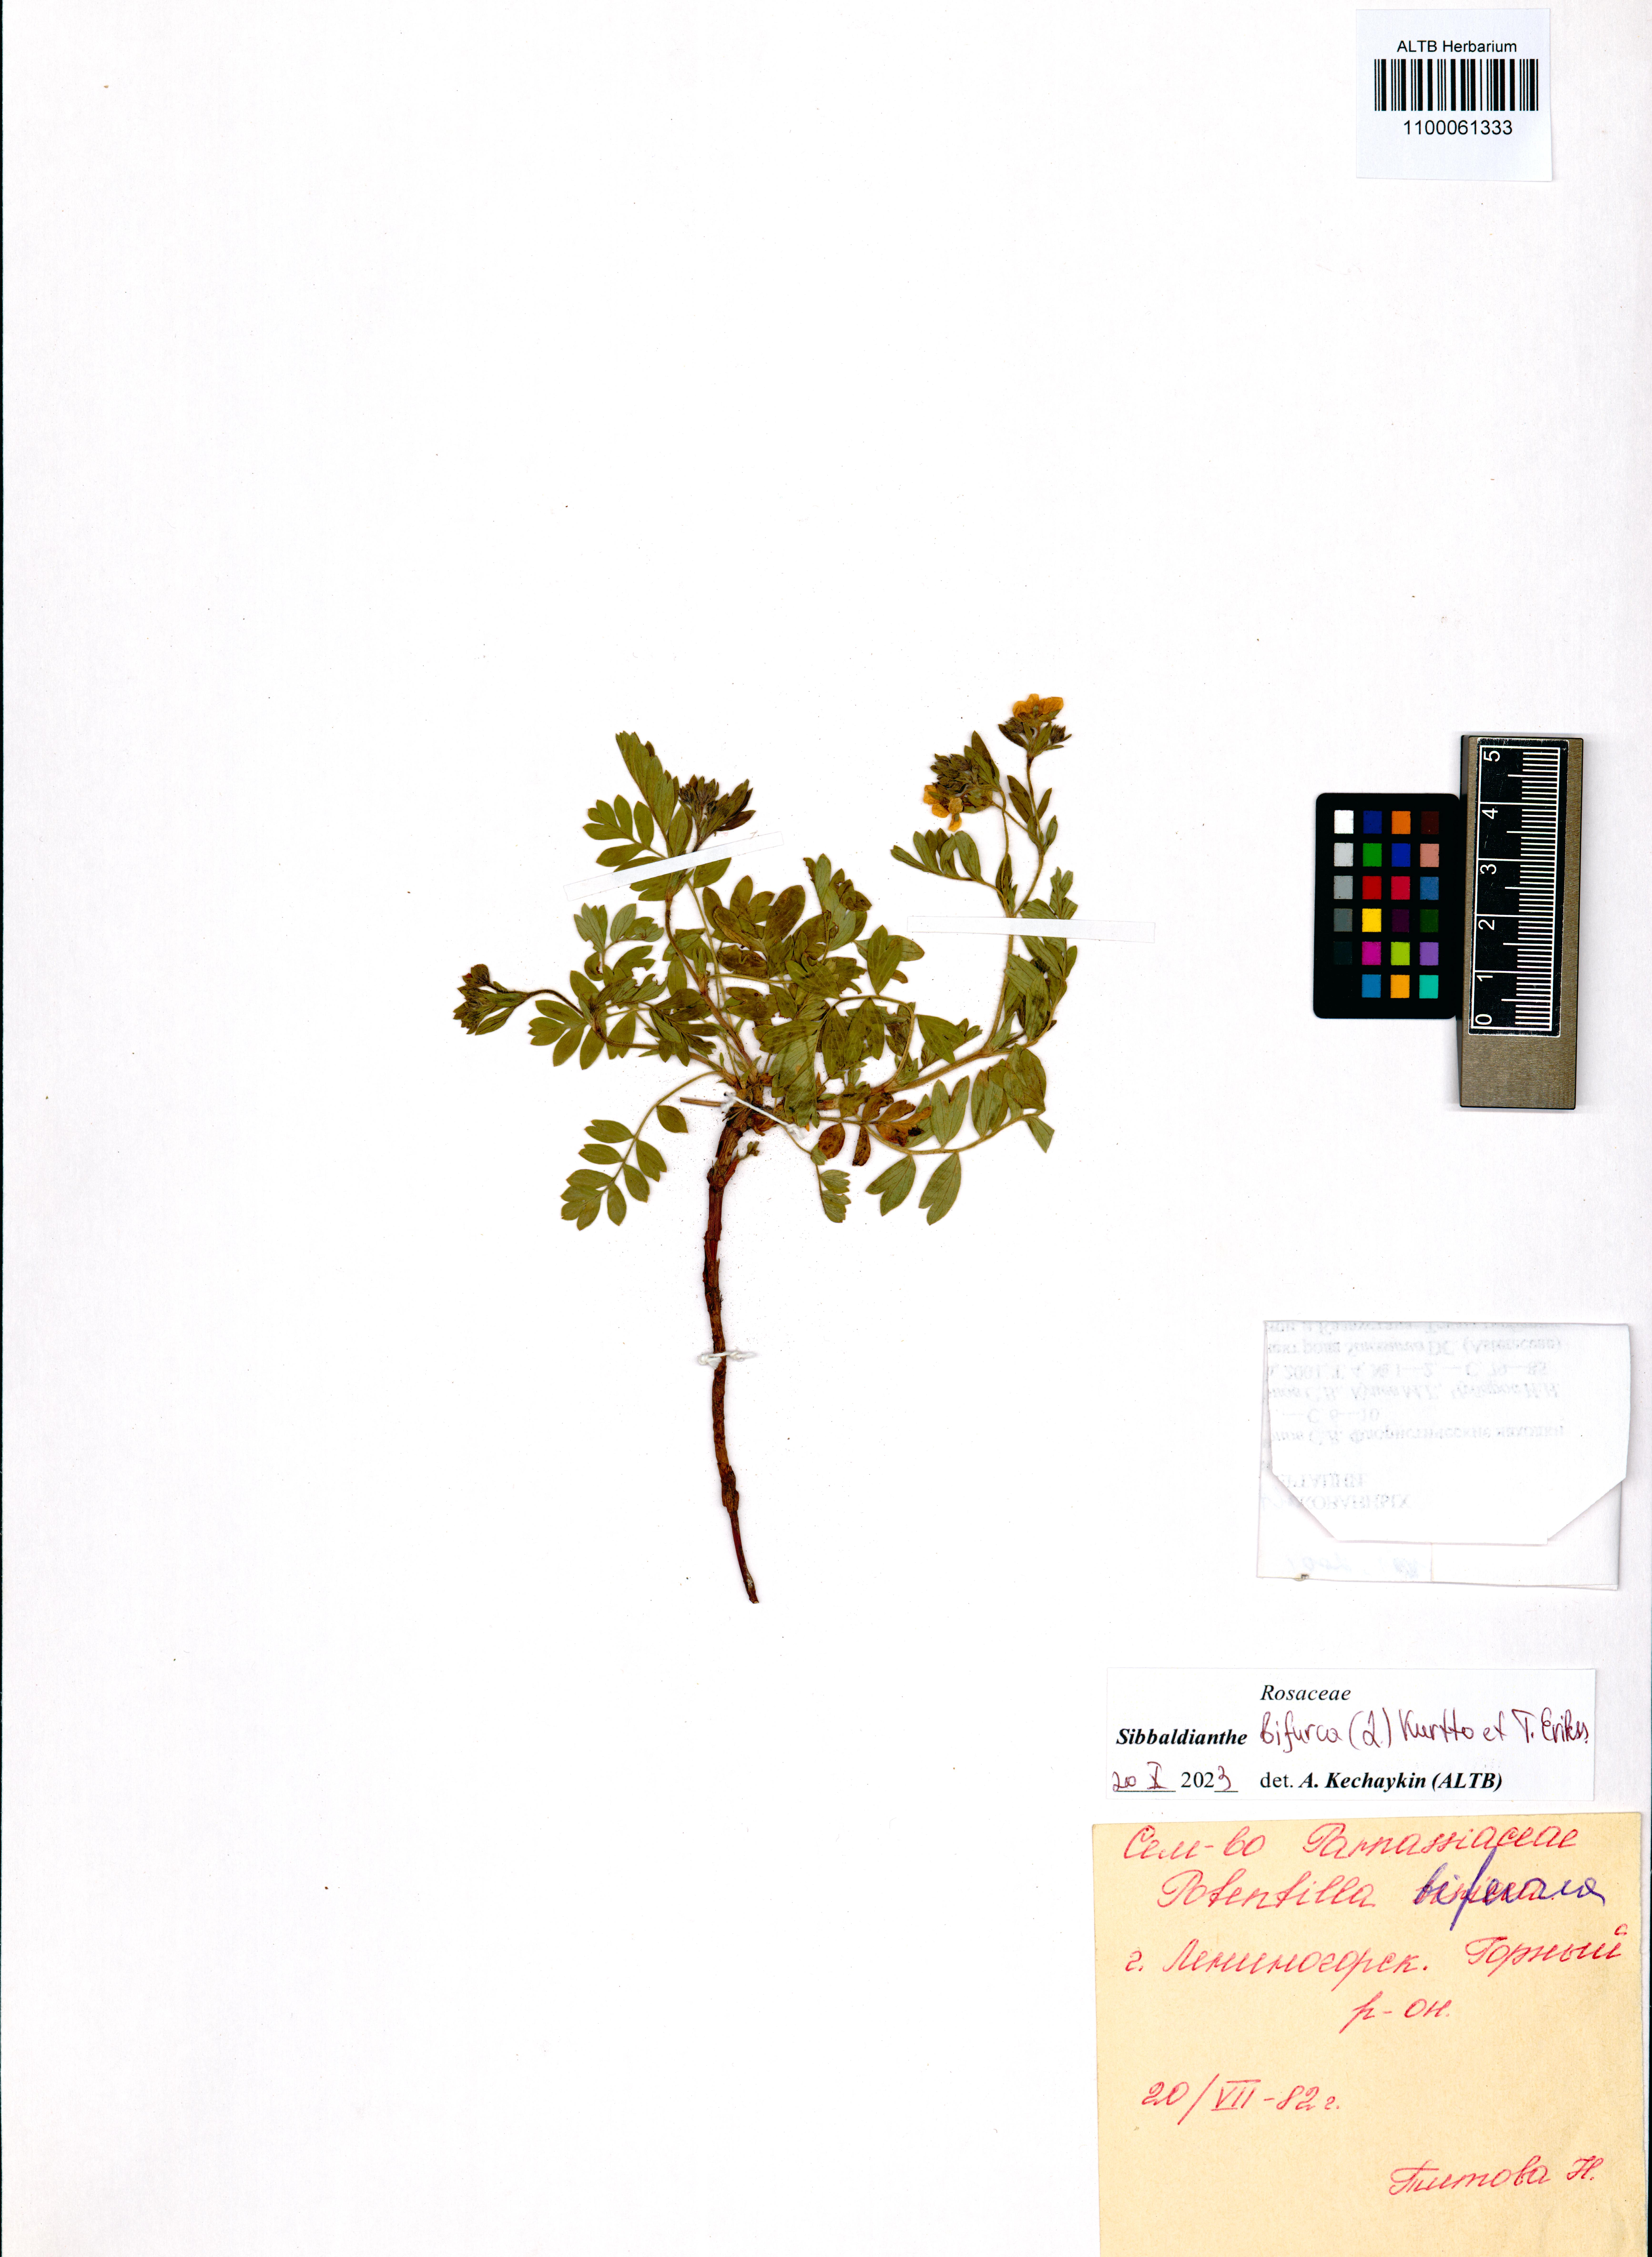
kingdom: Plantae
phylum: Tracheophyta
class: Magnoliopsida
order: Rosales
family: Rosaceae
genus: Sibbaldianthe
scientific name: Sibbaldianthe bifurca
